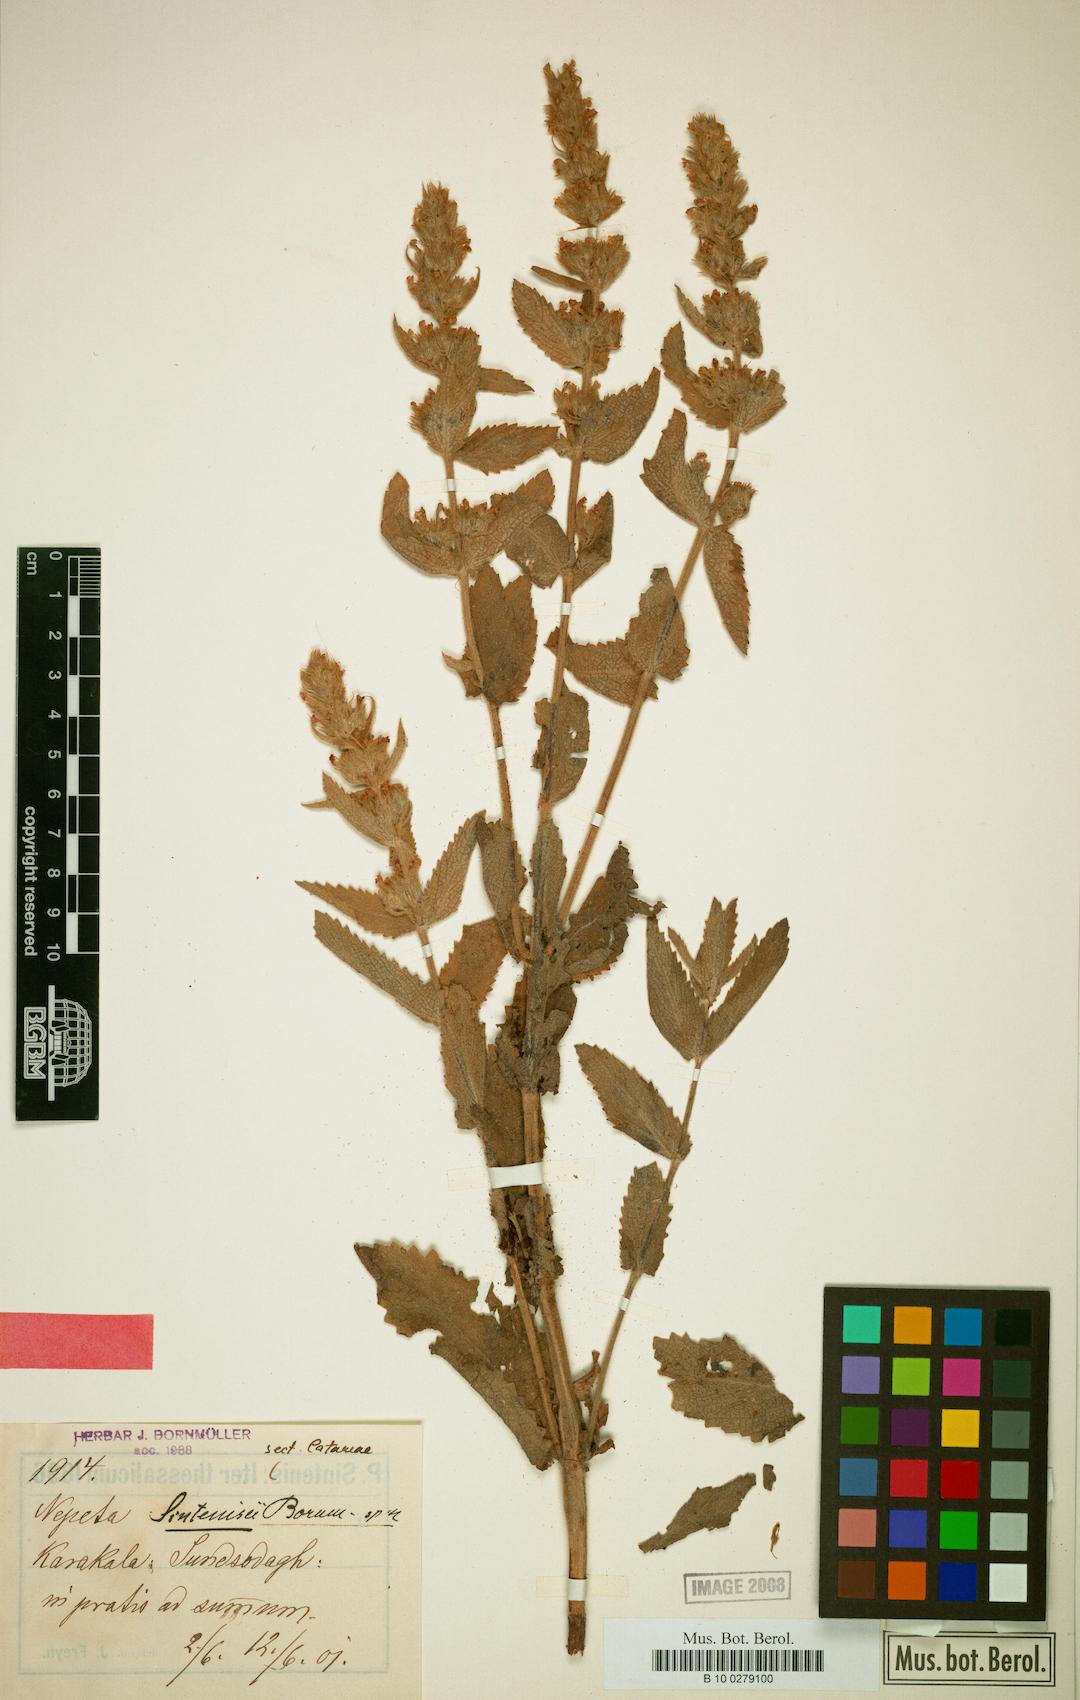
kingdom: Plantae
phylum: Tracheophyta
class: Magnoliopsida
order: Lamiales
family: Lamiaceae
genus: Nepeta
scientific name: Nepeta bodeana
